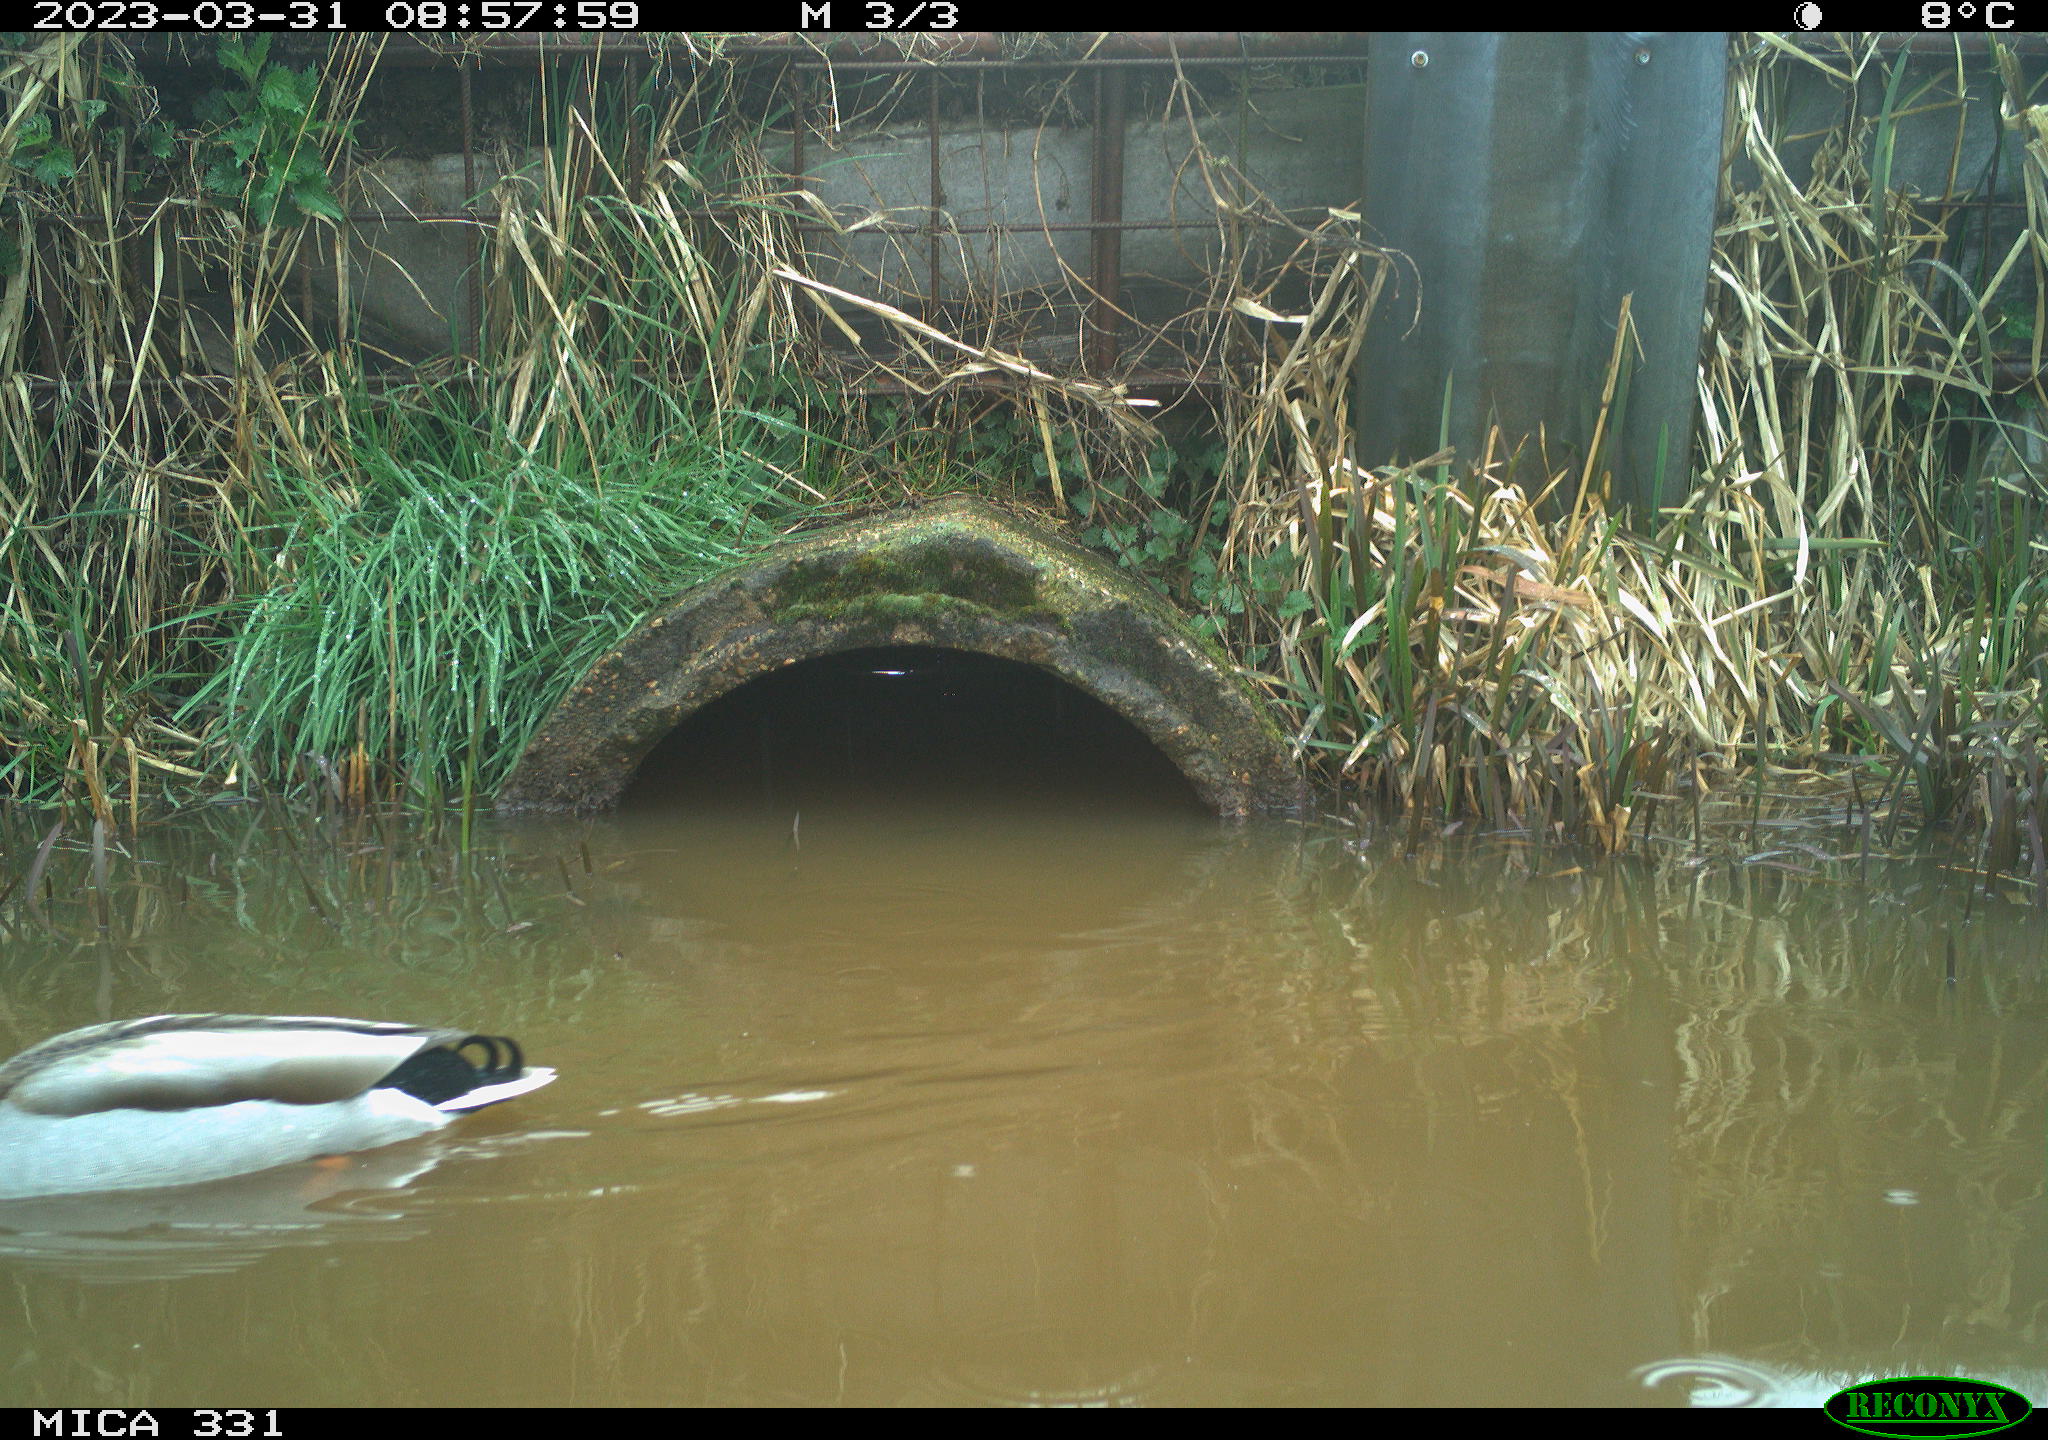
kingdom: Animalia
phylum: Chordata
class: Aves
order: Anseriformes
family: Anatidae
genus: Anas
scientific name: Anas
